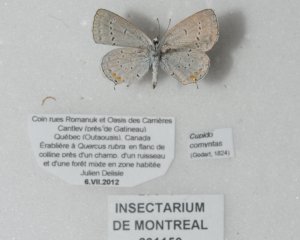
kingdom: Animalia
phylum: Arthropoda
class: Insecta
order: Lepidoptera
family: Lycaenidae
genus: Elkalyce
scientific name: Elkalyce comyntas
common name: Eastern Tailed-Blue
